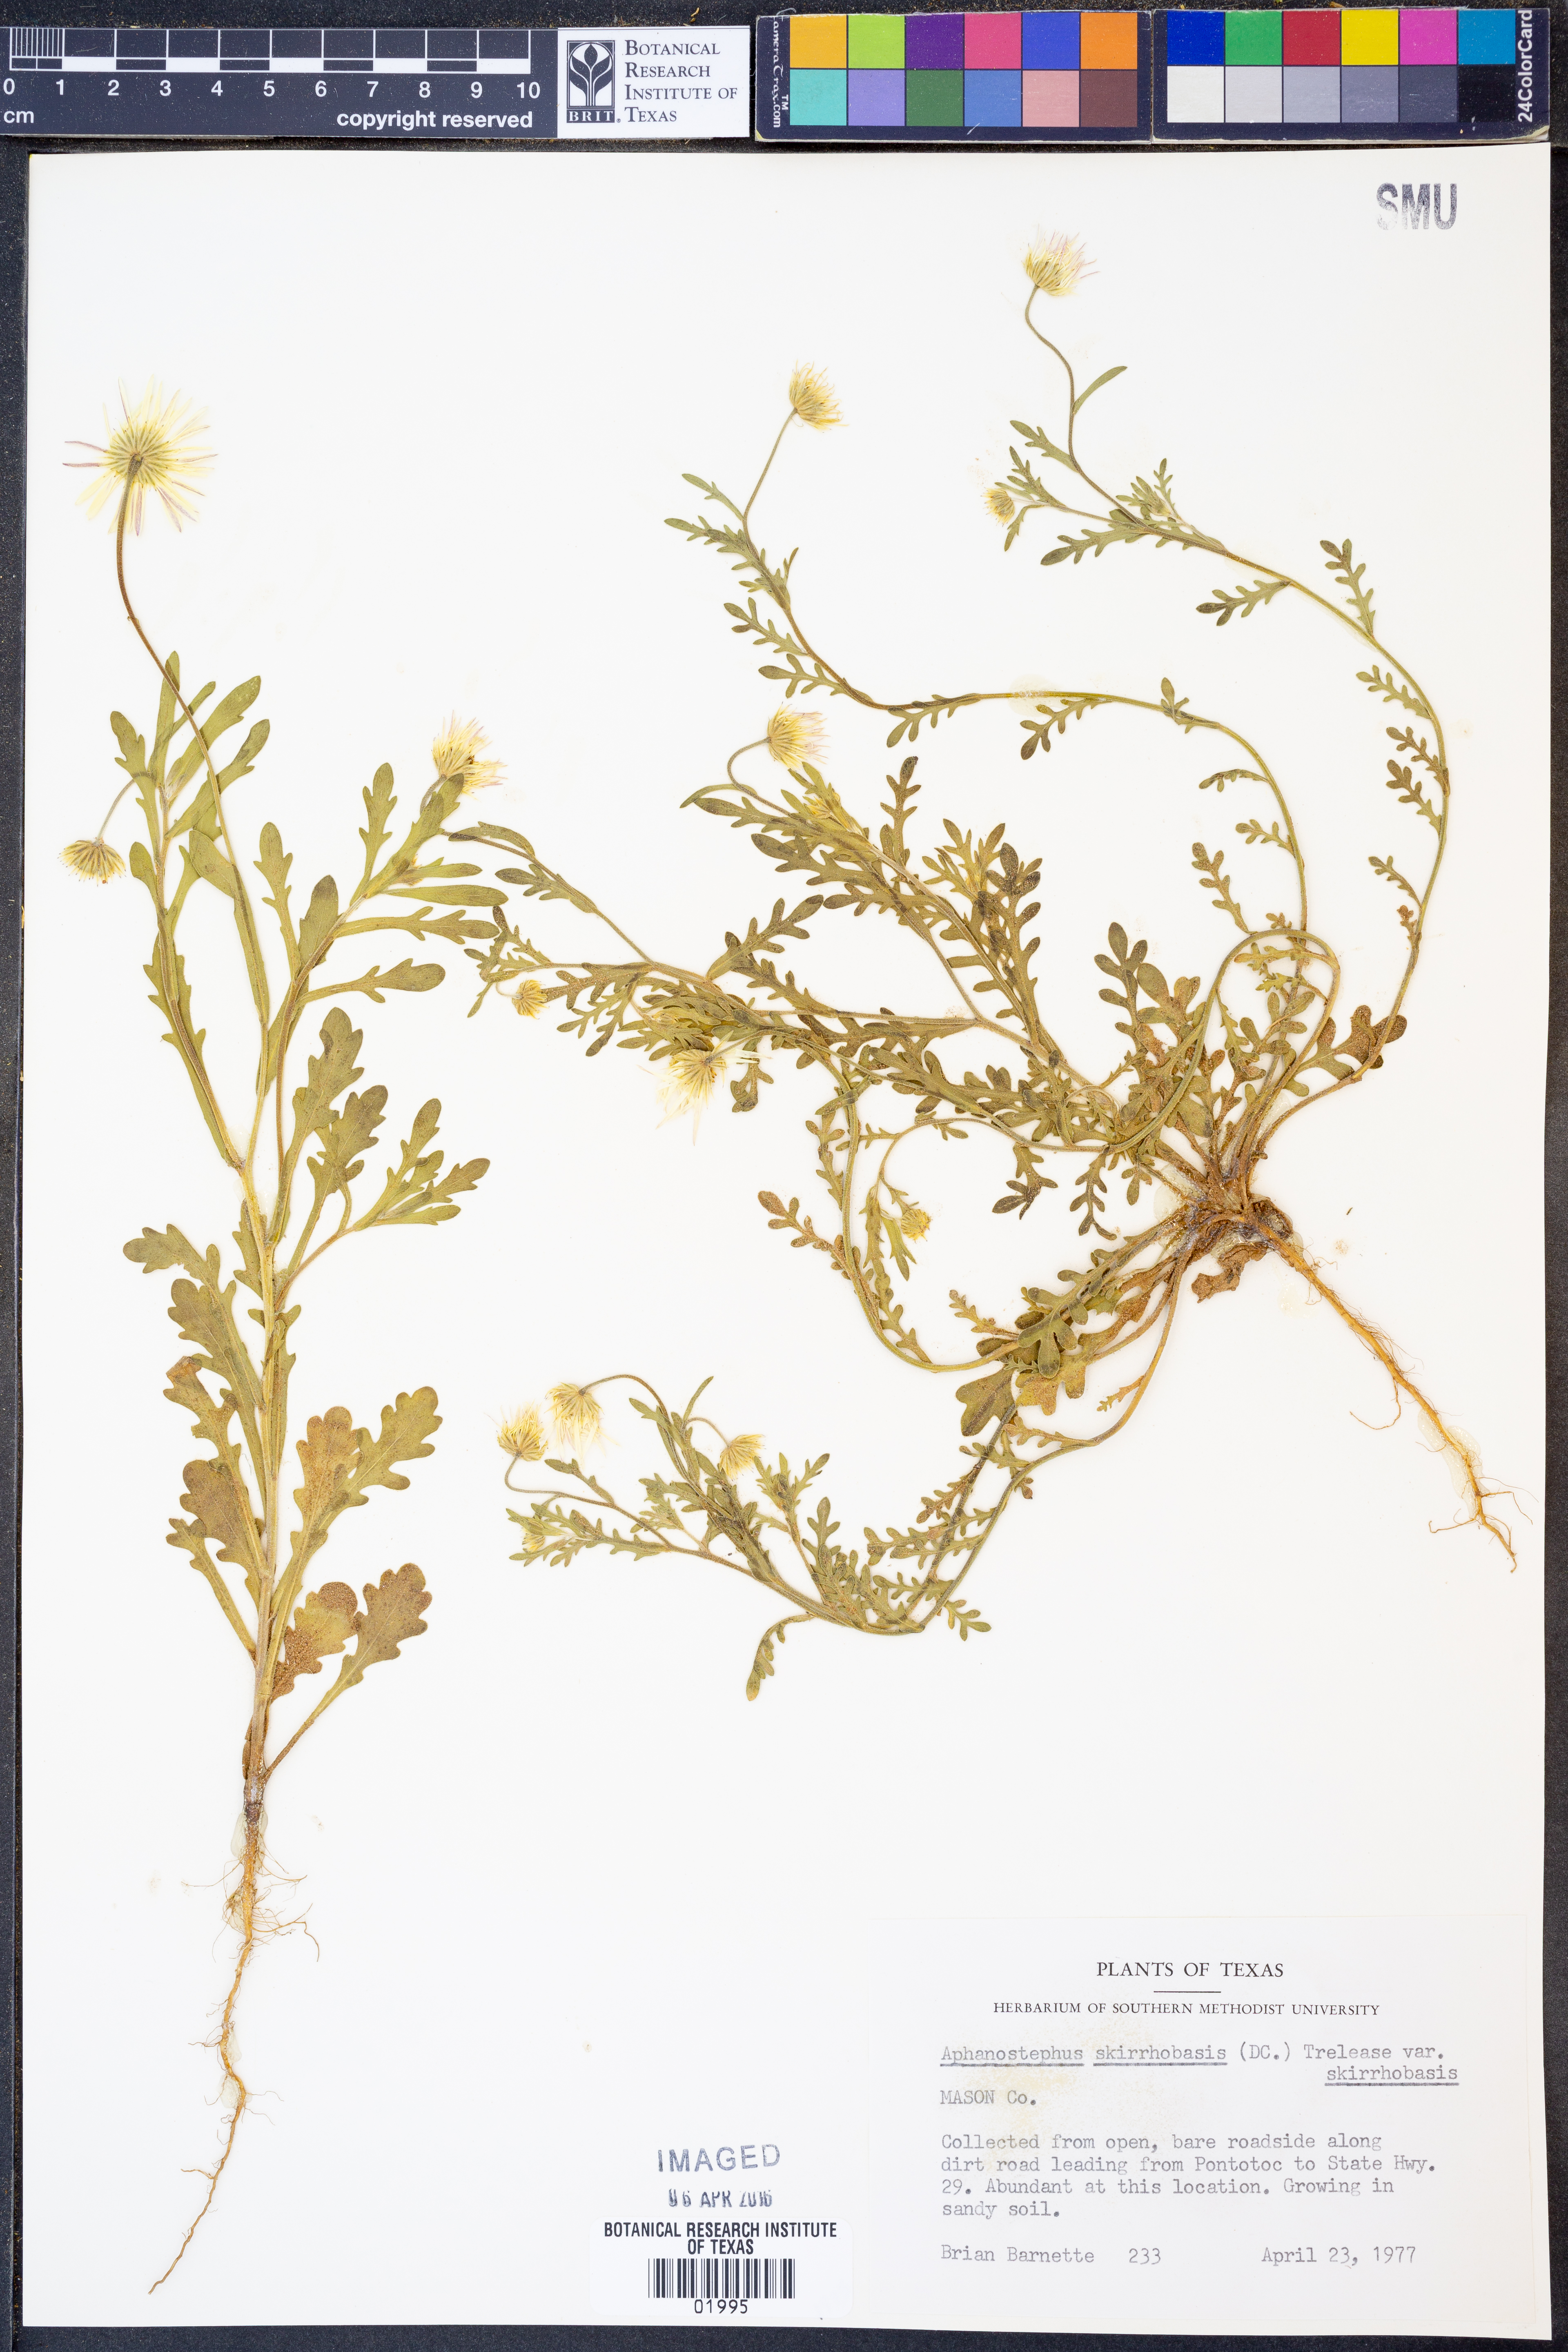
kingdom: Plantae
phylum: Tracheophyta
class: Magnoliopsida
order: Asterales
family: Asteraceae
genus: Aphanostephus
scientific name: Aphanostephus skirrhobasis
